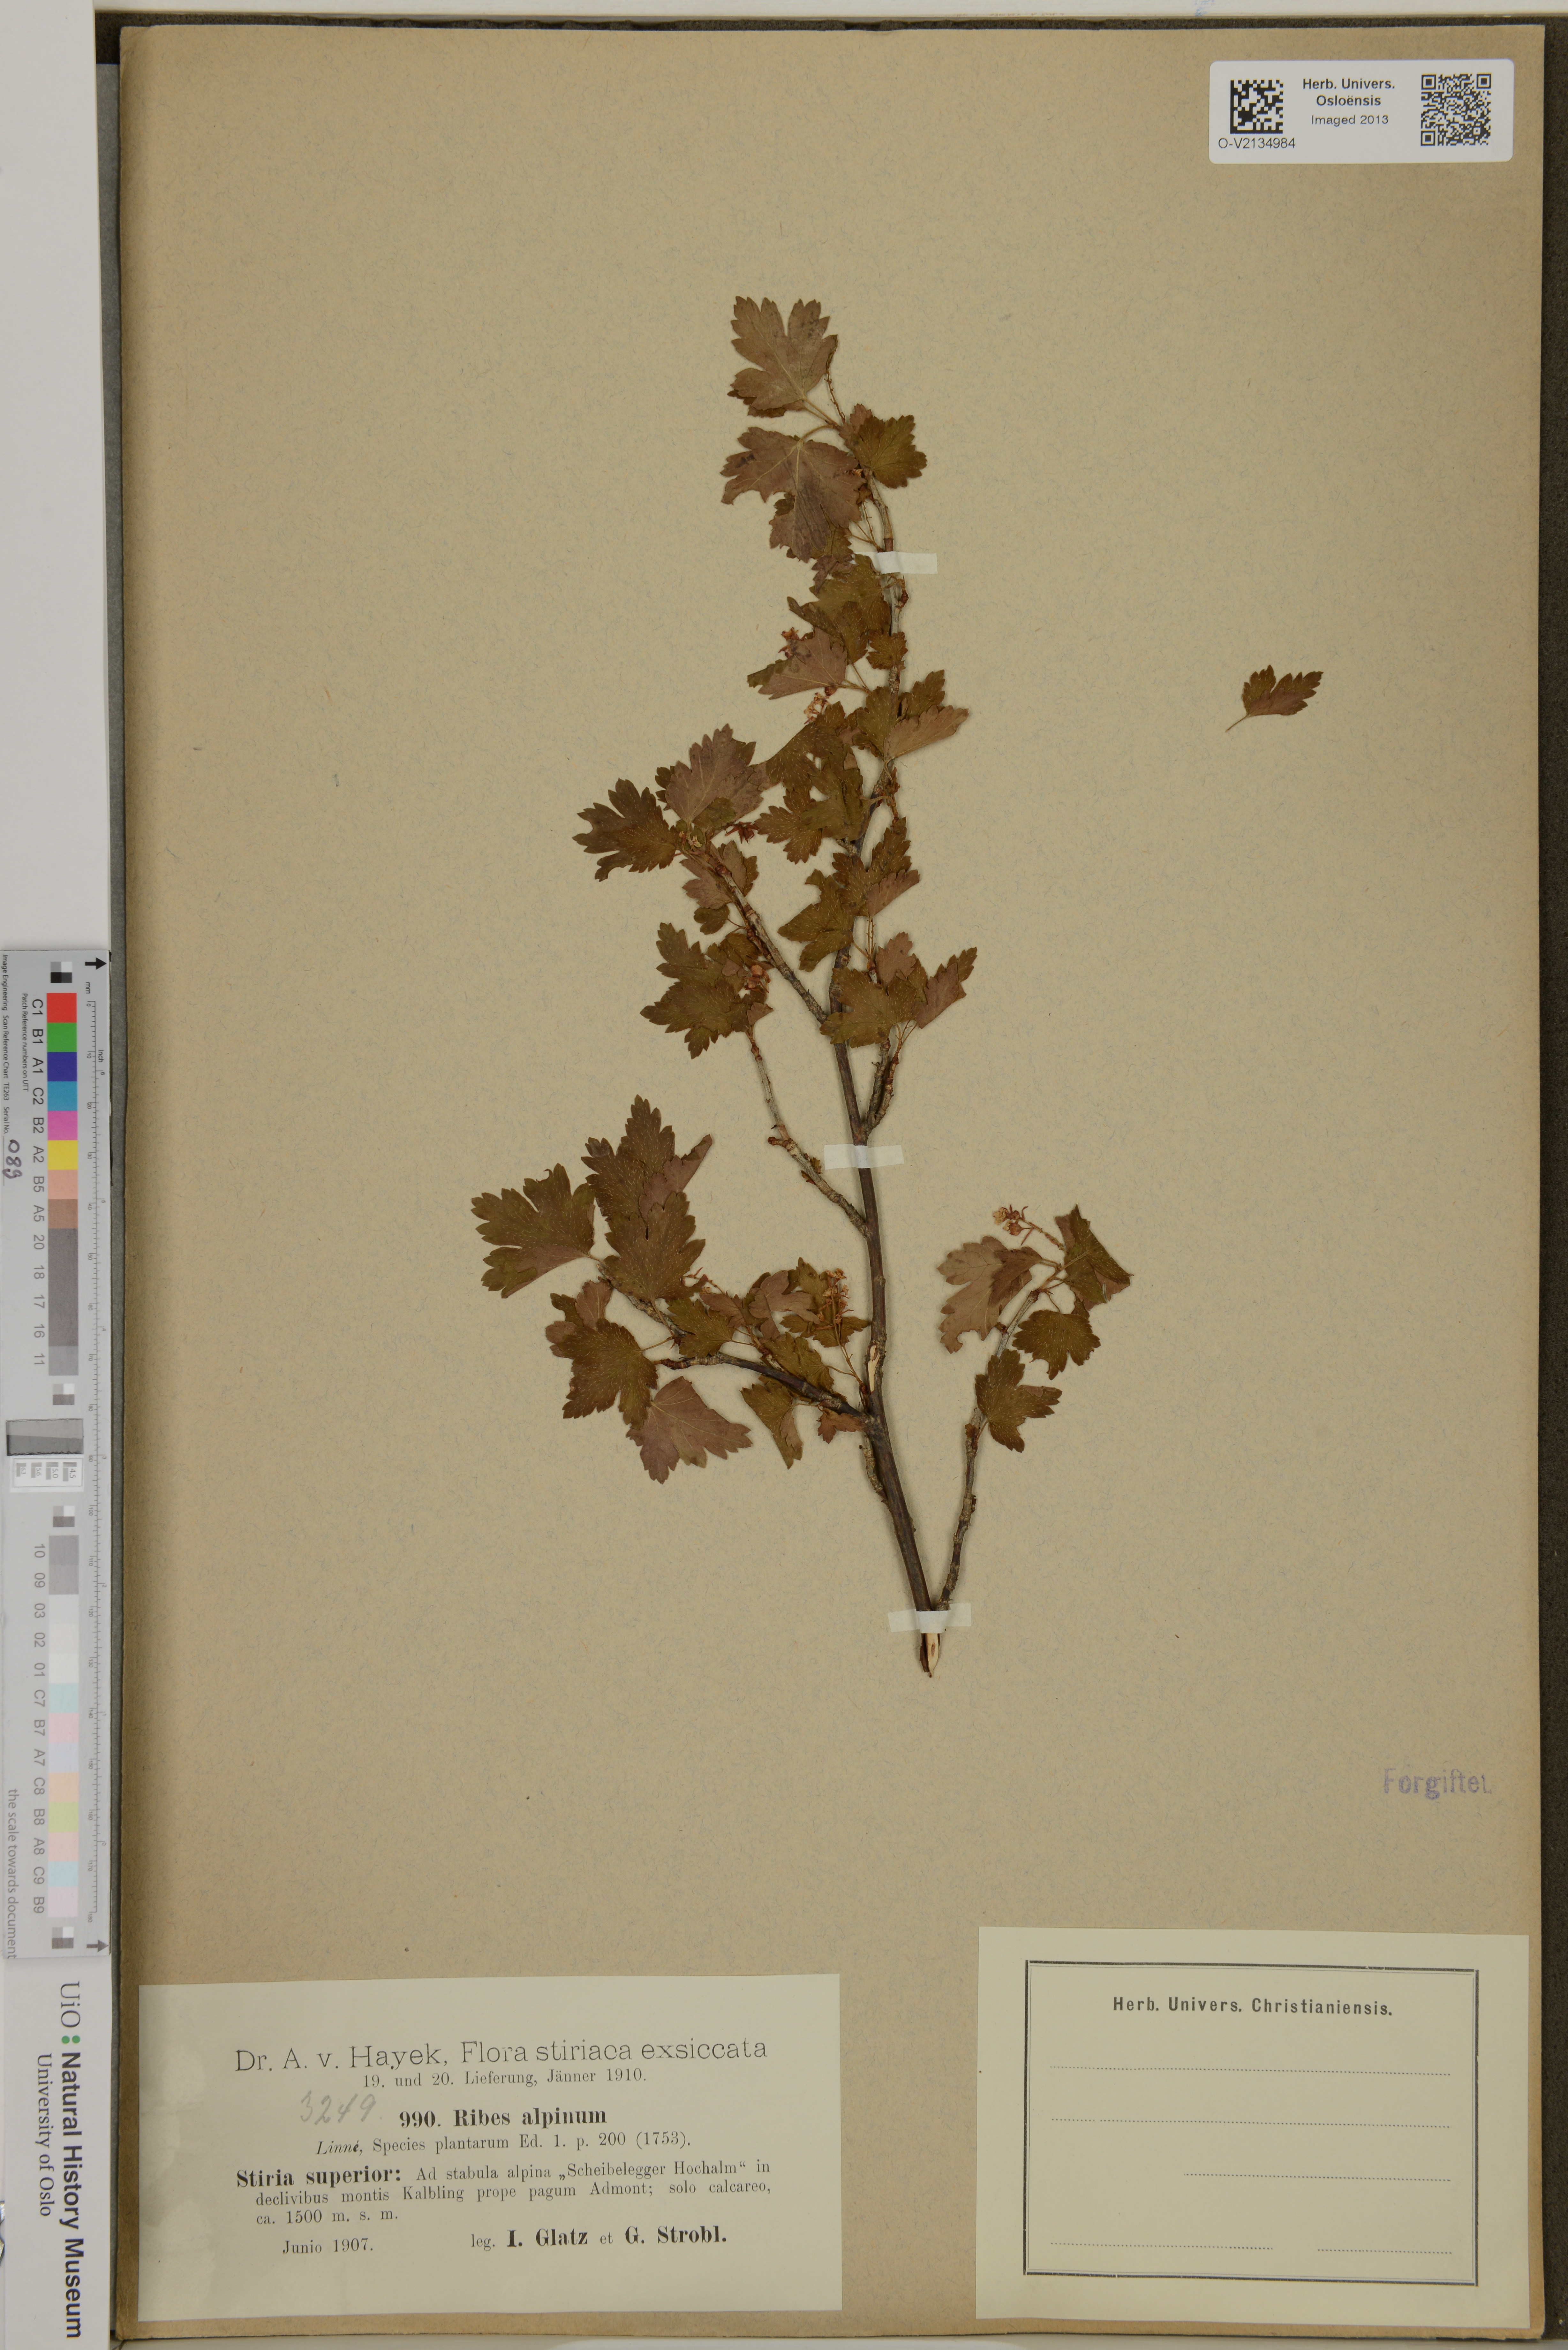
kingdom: Plantae
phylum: Tracheophyta
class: Magnoliopsida
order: Saxifragales
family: Grossulariaceae
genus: Ribes
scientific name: Ribes alpinum
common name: Alpine currant
